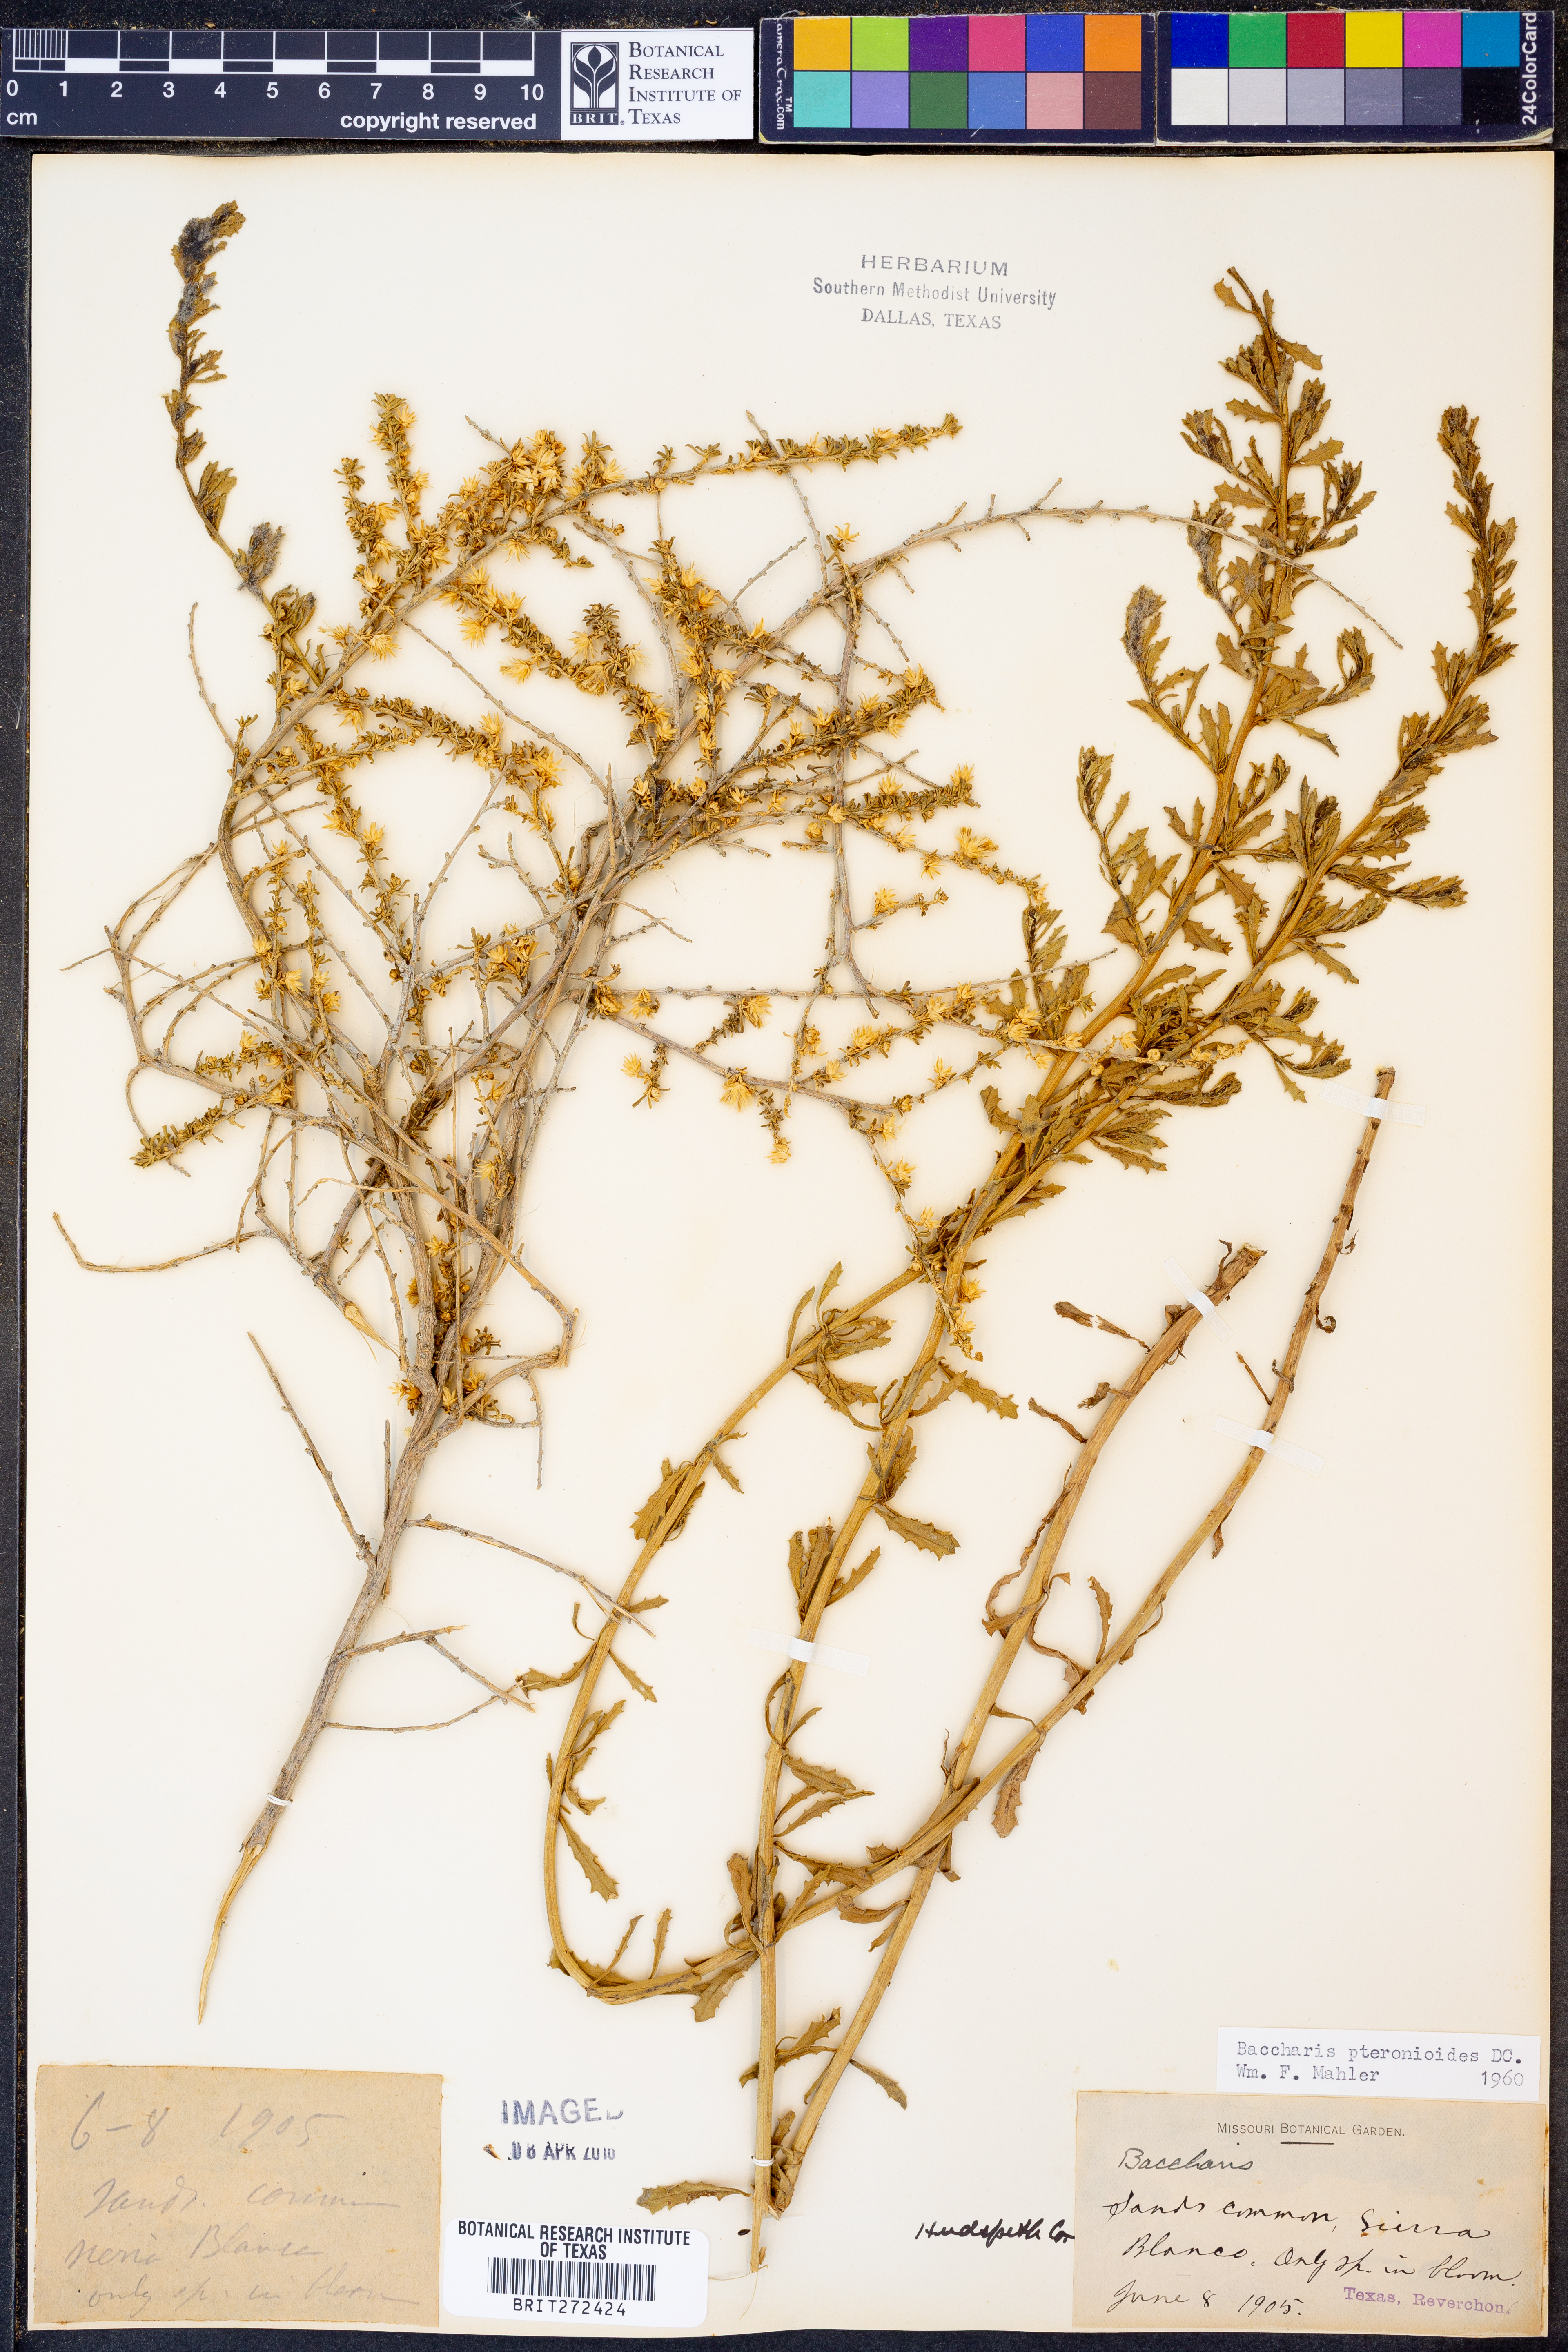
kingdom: Plantae
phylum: Tracheophyta
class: Magnoliopsida
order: Asterales
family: Asteraceae
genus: Baccharis
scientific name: Baccharis pteronioides
